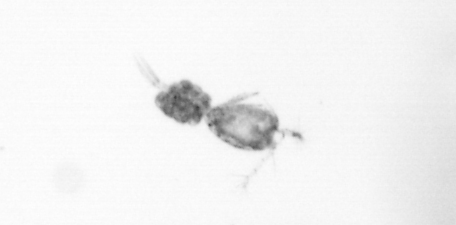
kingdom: Animalia
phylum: Arthropoda
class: Copepoda
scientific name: Copepoda
